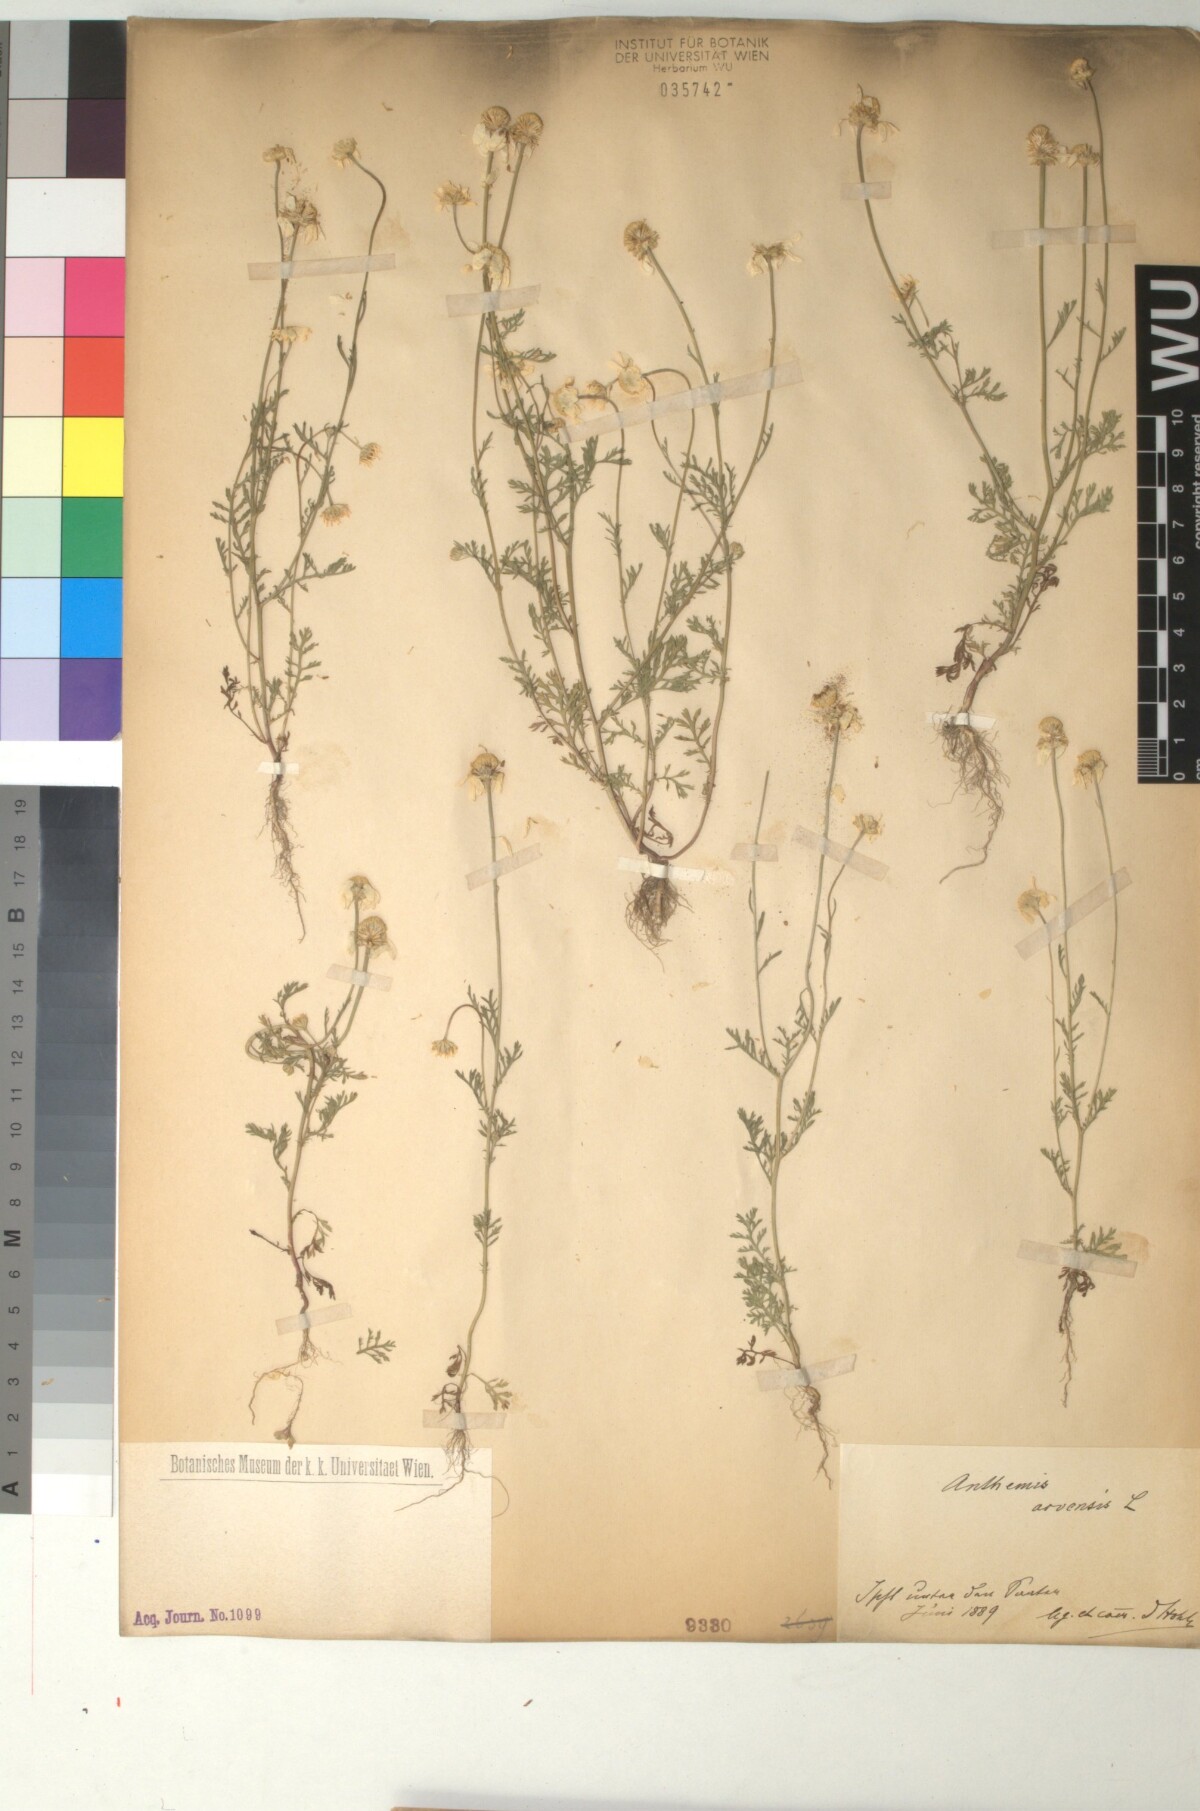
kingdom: Plantae
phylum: Tracheophyta
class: Magnoliopsida
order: Asterales
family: Asteraceae
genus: Anthemis
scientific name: Anthemis arvensis
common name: Corn chamomile
